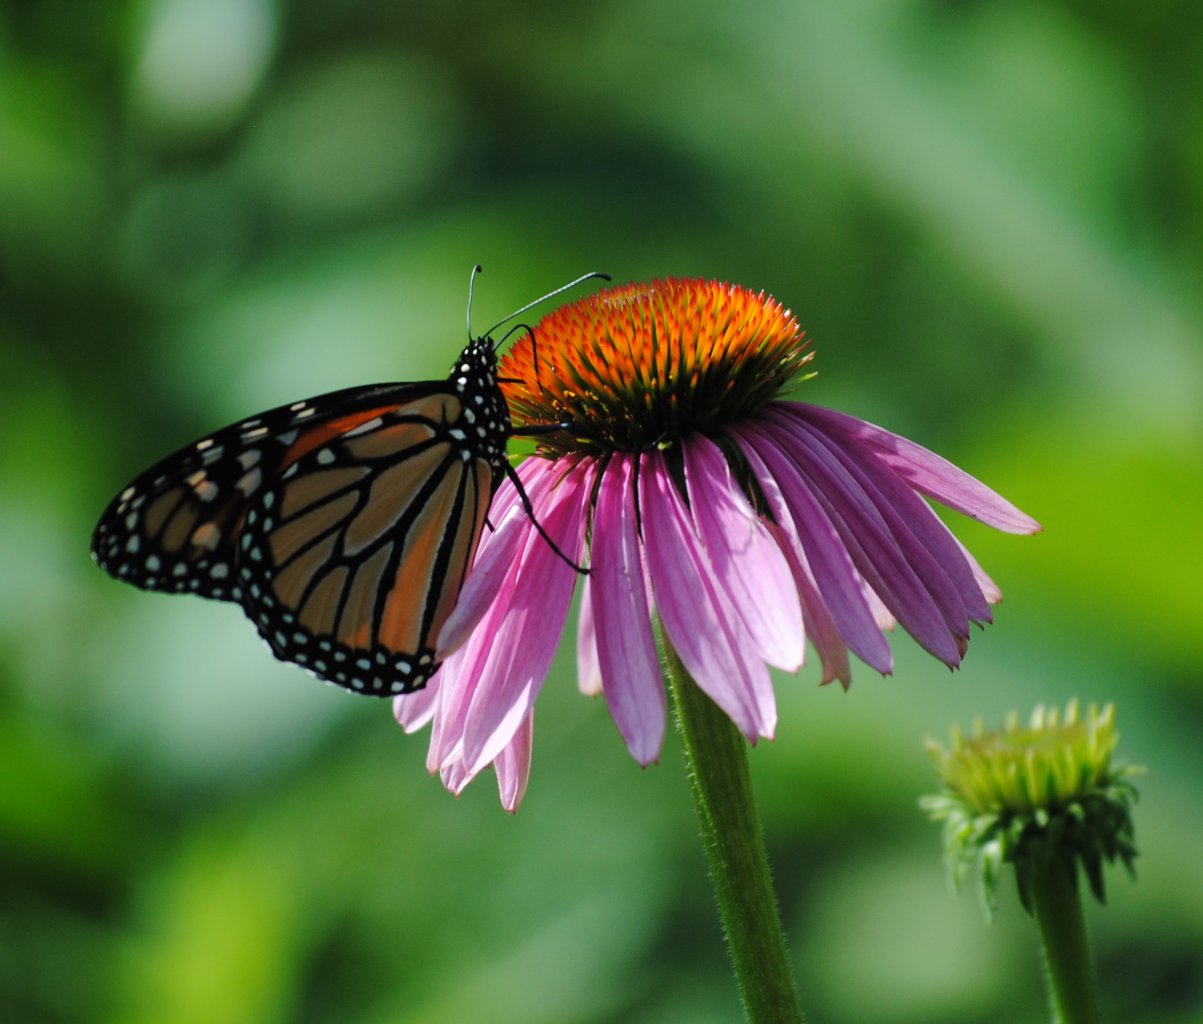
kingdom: Animalia
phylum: Arthropoda
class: Insecta
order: Lepidoptera
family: Nymphalidae
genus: Danaus
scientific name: Danaus plexippus
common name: Monarch
